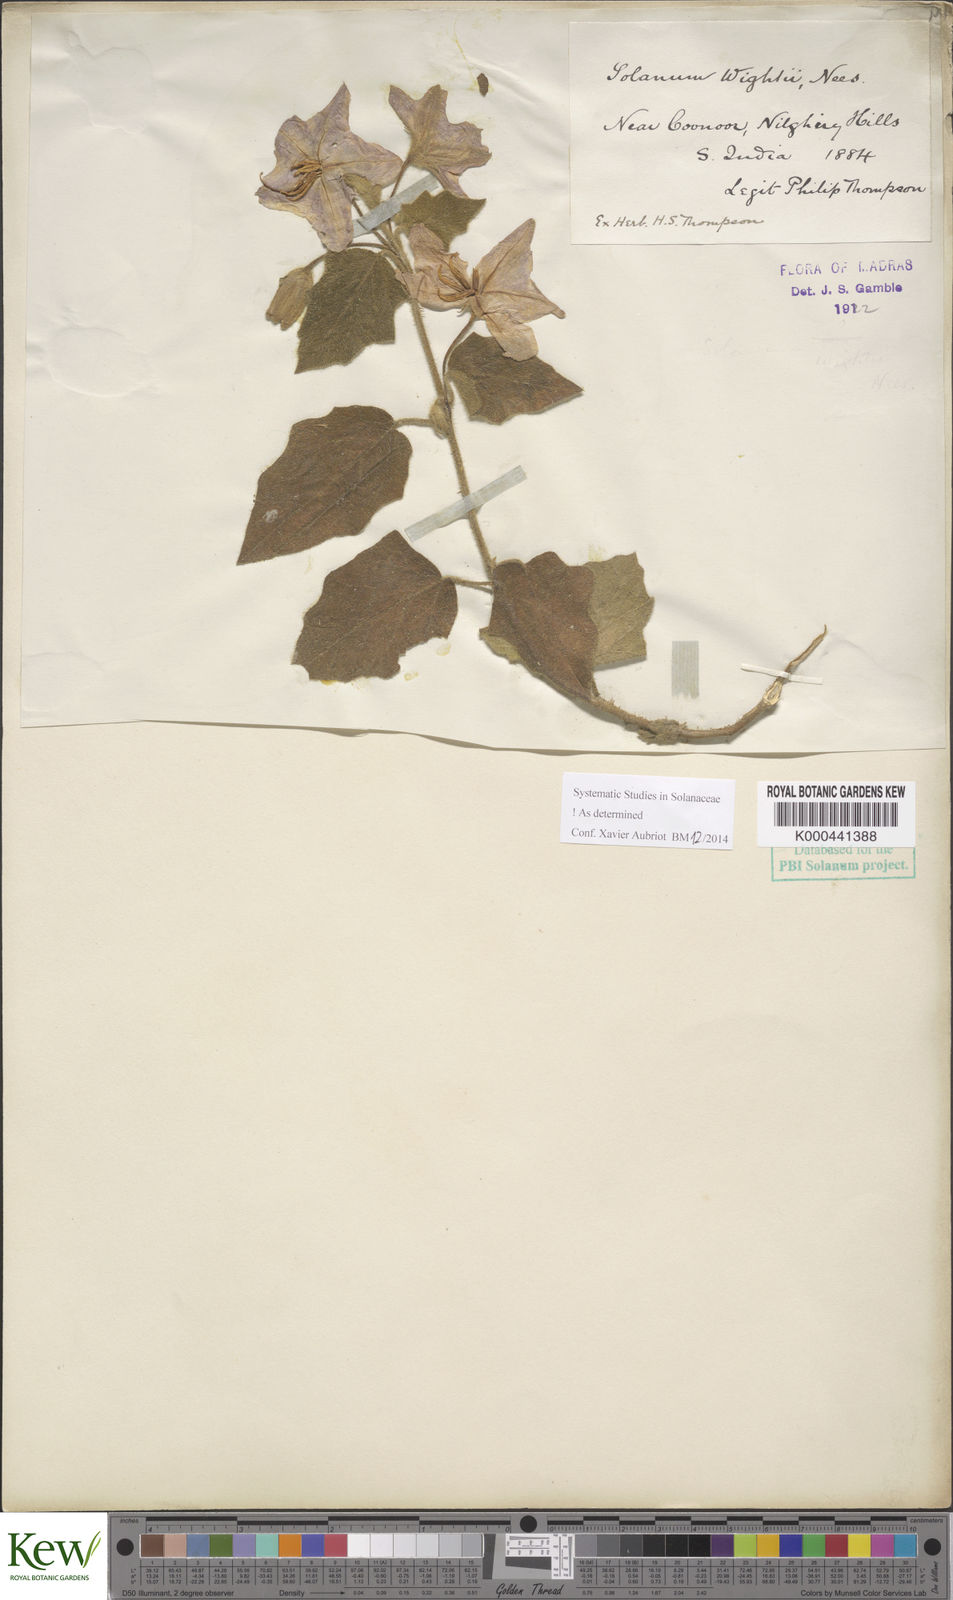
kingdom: Plantae
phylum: Tracheophyta
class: Magnoliopsida
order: Solanales
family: Solanaceae
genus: Solanum
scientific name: Solanum wightii
